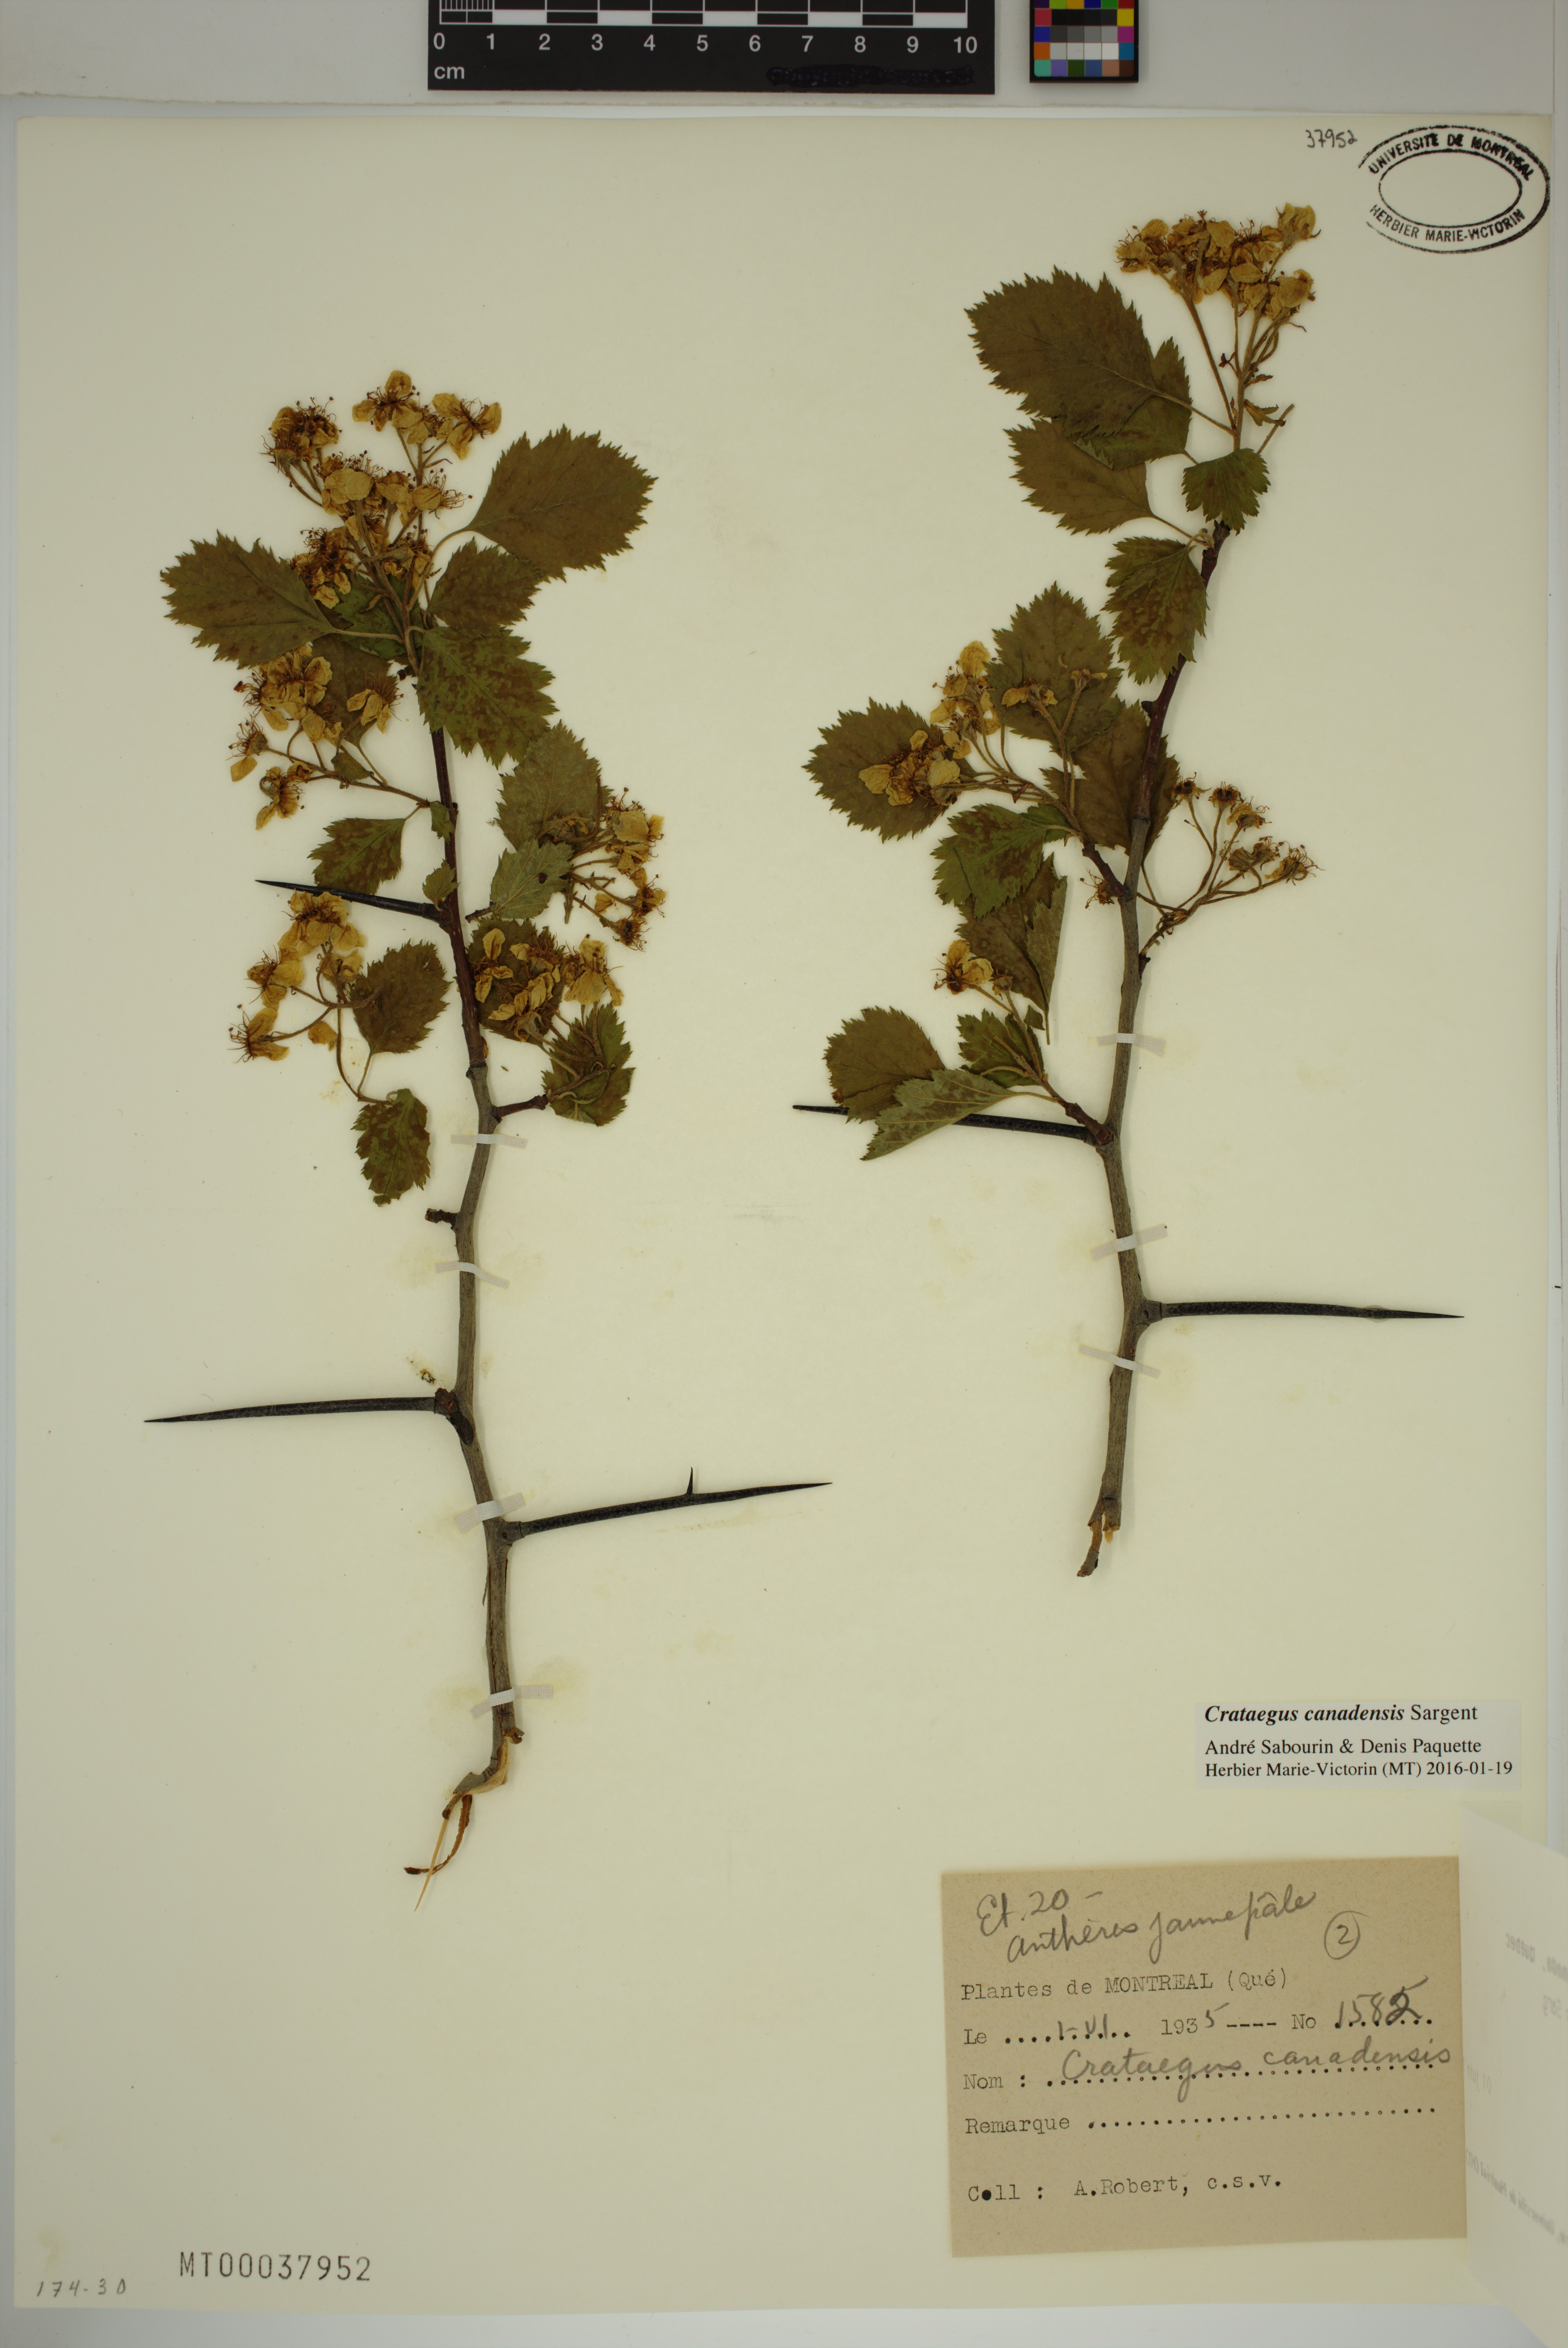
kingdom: Plantae
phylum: Tracheophyta
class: Magnoliopsida
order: Rosales
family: Rosaceae
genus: Crataegus
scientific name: Crataegus submollis
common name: Hairy cockspurthorn
